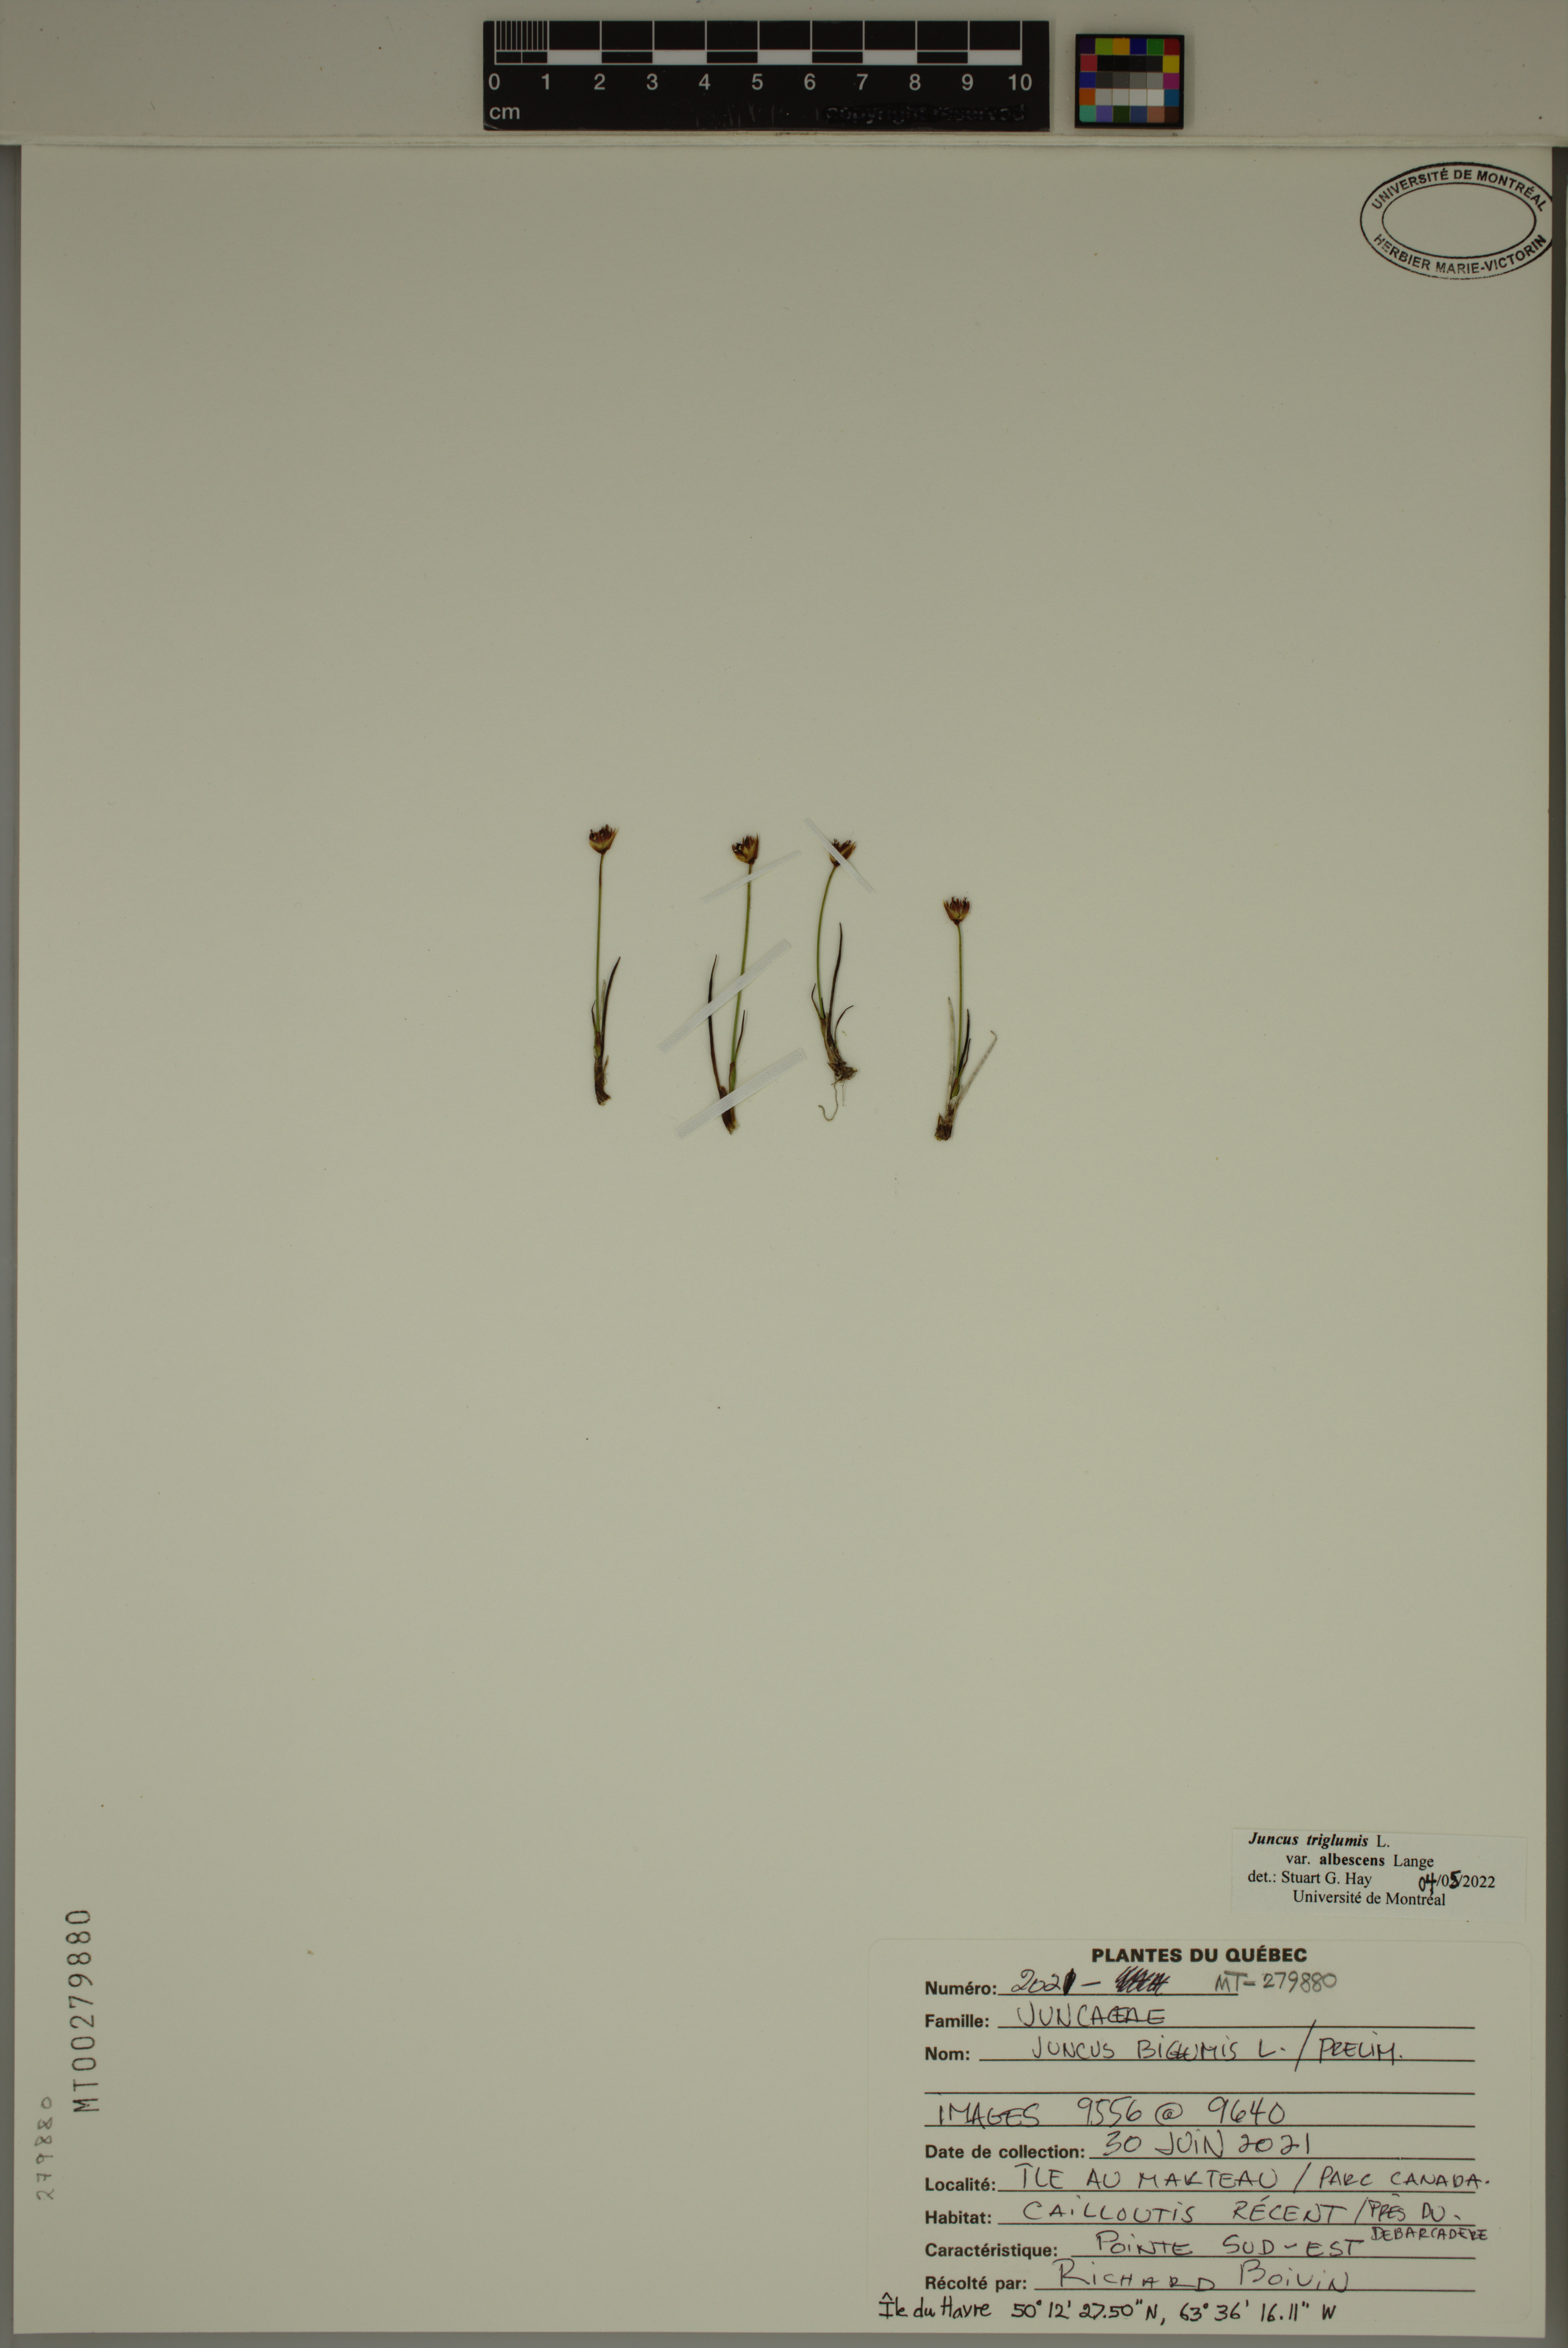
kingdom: Plantae
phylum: Tracheophyta
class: Liliopsida
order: Poales
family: Juncaceae
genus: Juncus
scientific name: Juncus albescens
